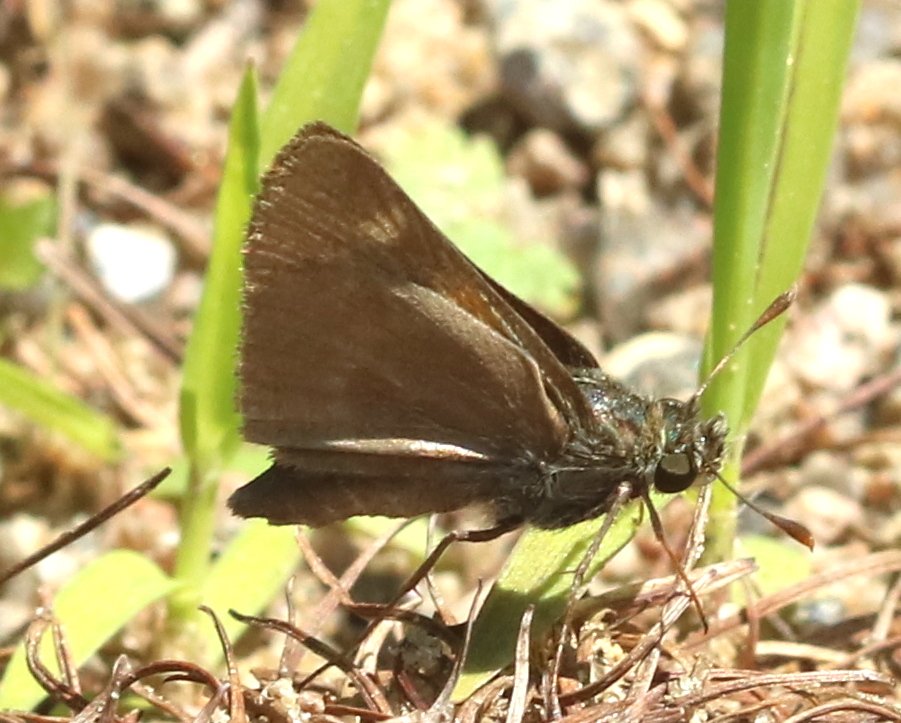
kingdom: Animalia
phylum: Arthropoda
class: Insecta
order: Lepidoptera
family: Hesperiidae
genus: Polites
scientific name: Polites themistocles
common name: Tawny-edged Skipper
